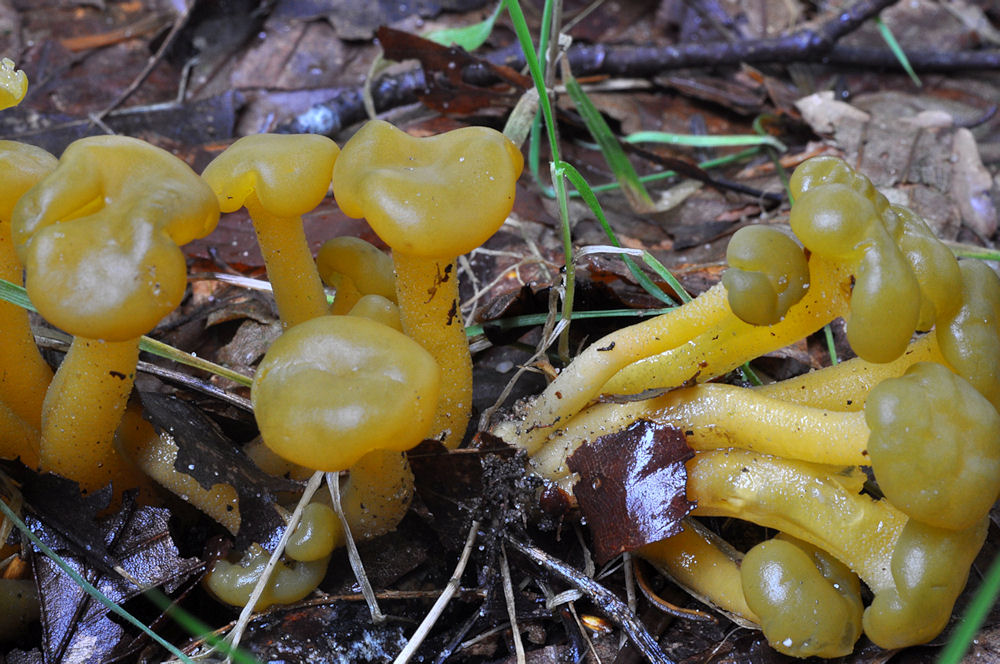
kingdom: Fungi
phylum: Ascomycota
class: Leotiomycetes
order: Leotiales
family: Leotiaceae
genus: Leotia
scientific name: Leotia lubrica
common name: ravsvamp
